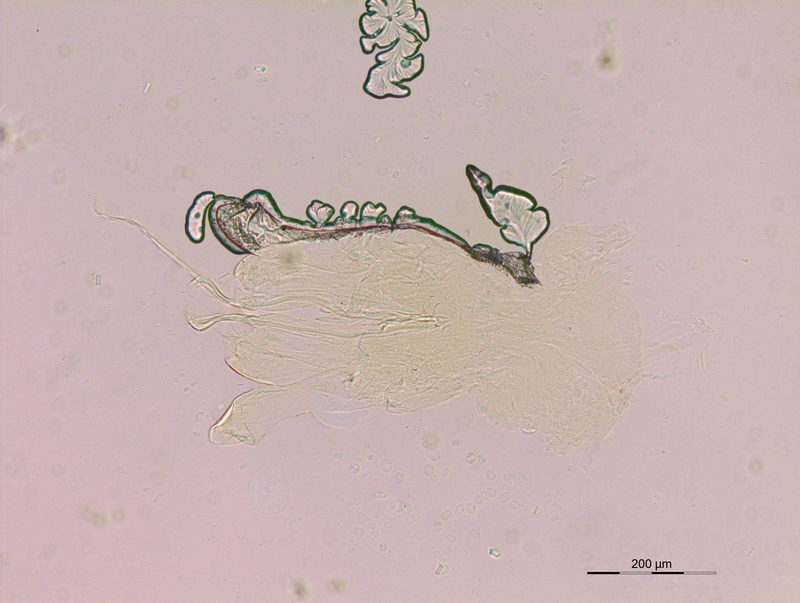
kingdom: Animalia
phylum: Arthropoda
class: Diplopoda
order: Julida
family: Rhopaloiulidae
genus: Rhopaloiulus
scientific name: Rhopaloiulus cameratanus
